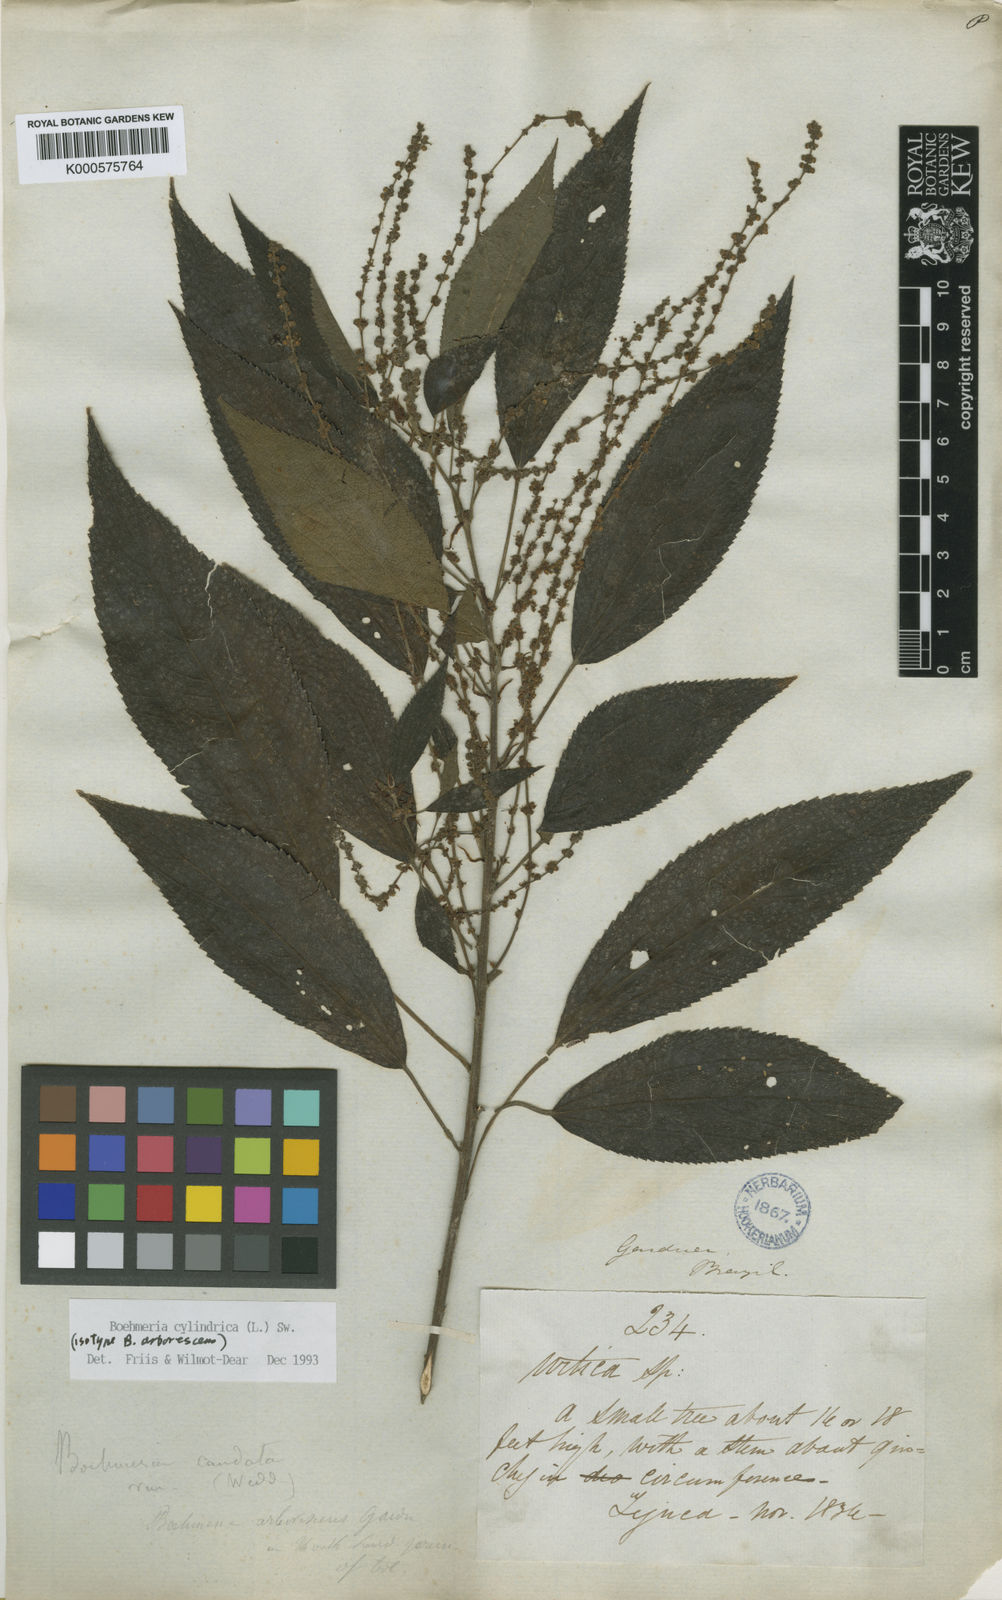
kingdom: Plantae
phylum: Tracheophyta
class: Magnoliopsida
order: Rosales
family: Urticaceae
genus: Boehmeria
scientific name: Boehmeria cylindrica
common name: Bog-hemp
